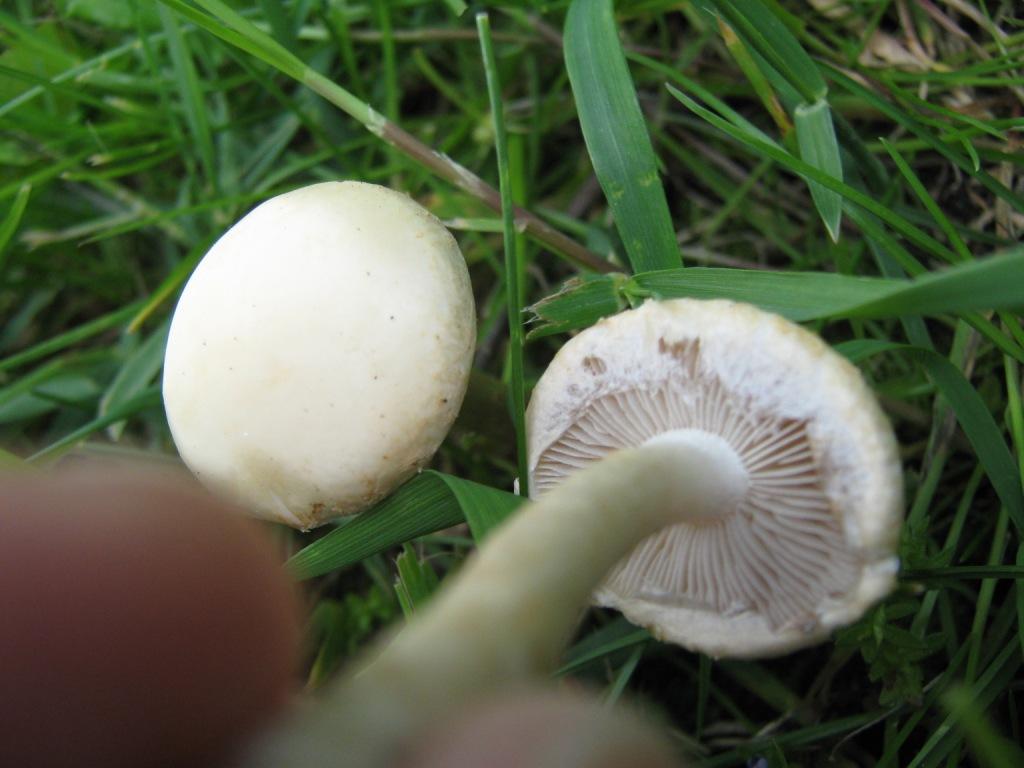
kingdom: Fungi
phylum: Basidiomycota
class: Agaricomycetes
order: Agaricales
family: Strophariaceae
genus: Agrocybe
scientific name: Agrocybe dura
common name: fastkødet agerhat
